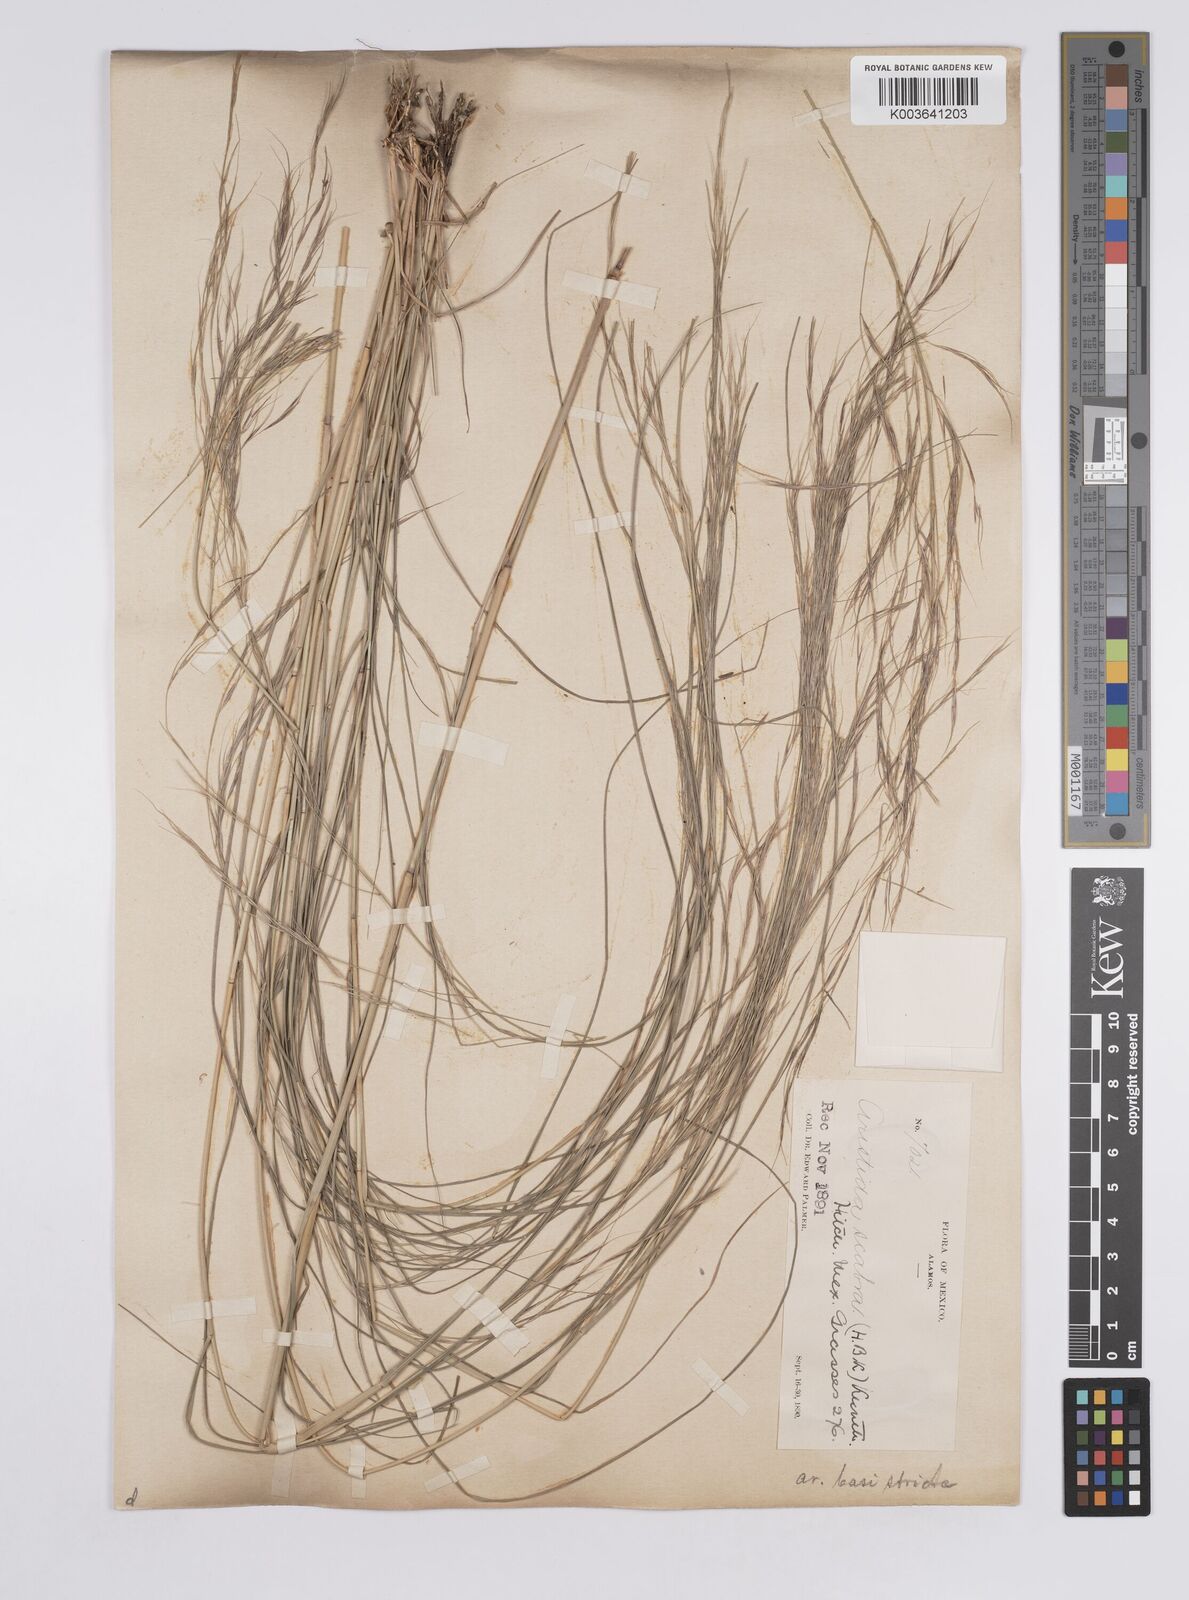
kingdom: Plantae
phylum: Tracheophyta
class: Liliopsida
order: Poales
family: Poaceae
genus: Aristida
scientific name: Aristida ternipes
